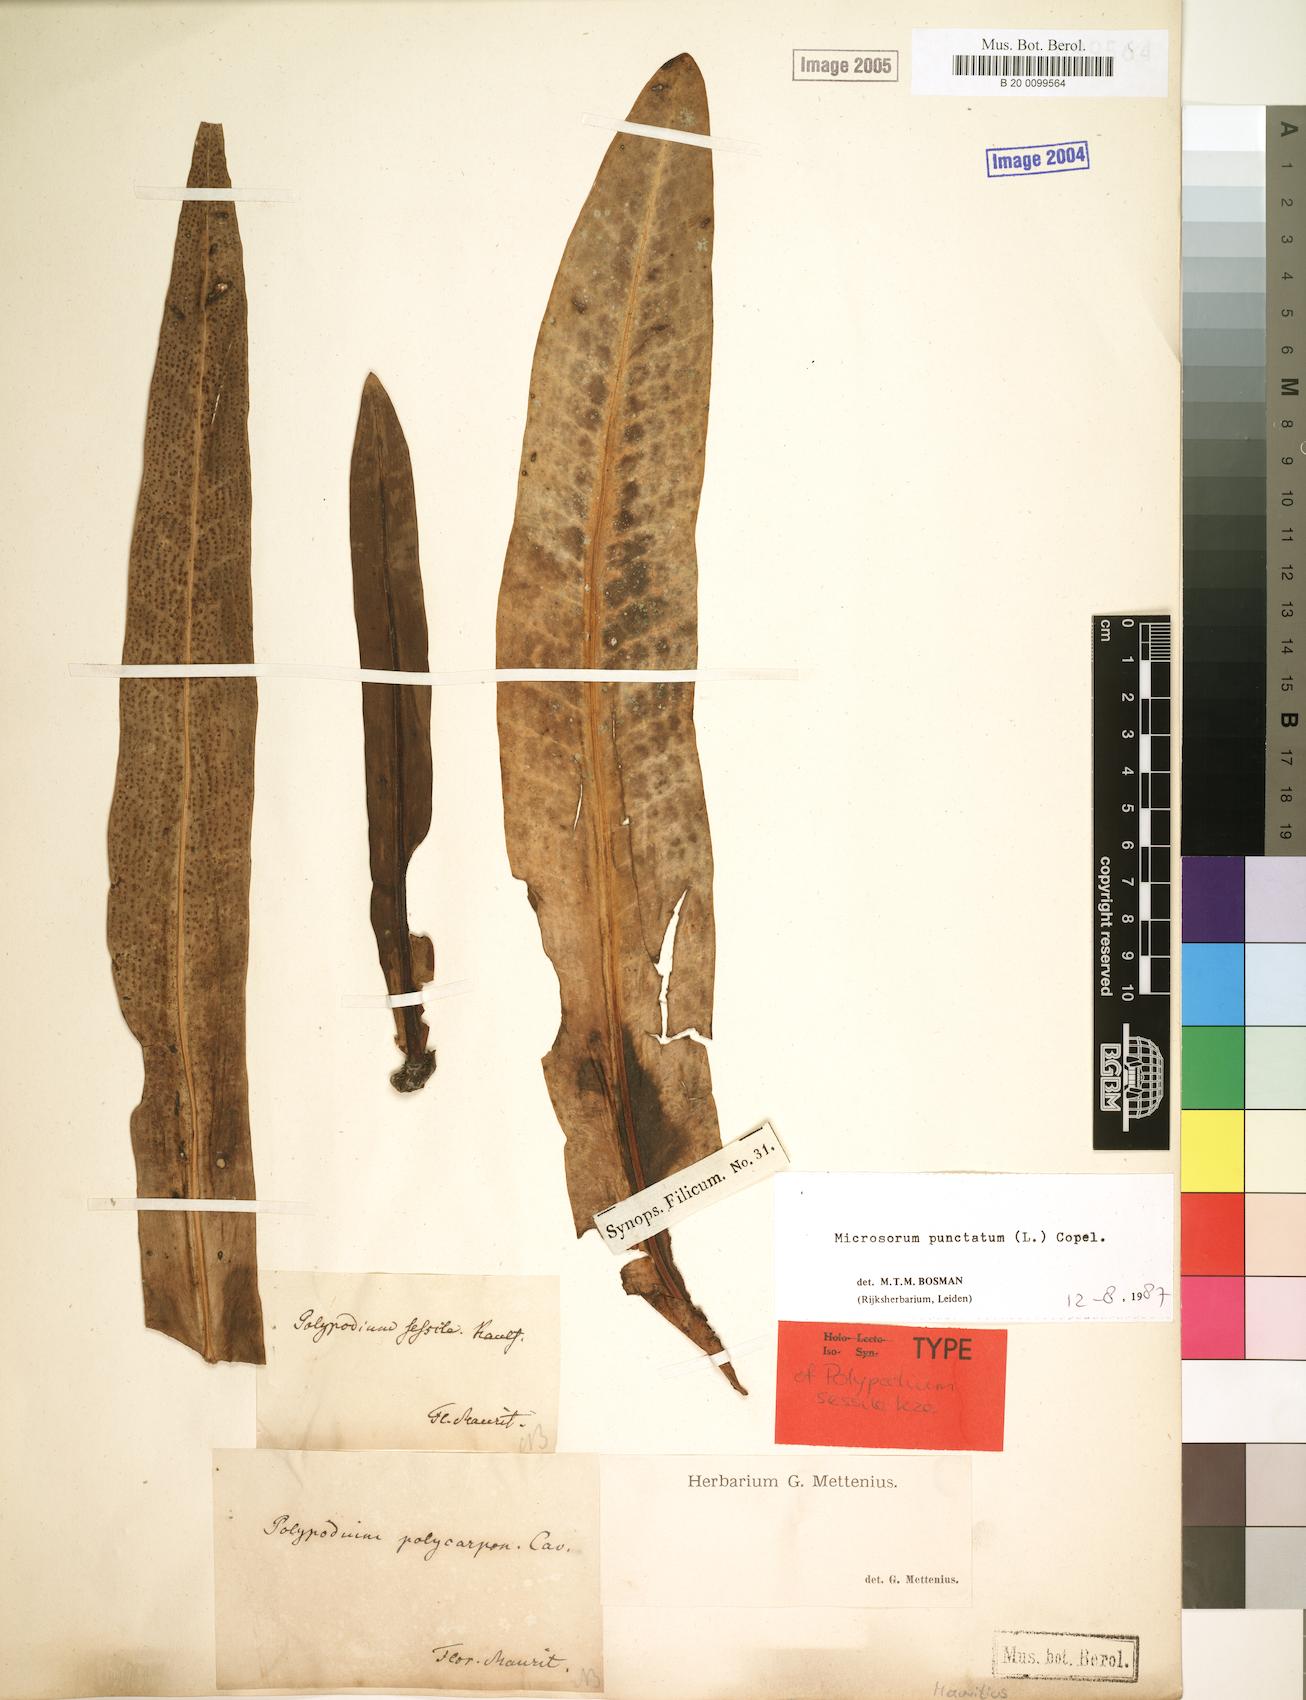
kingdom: Plantae
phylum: Tracheophyta
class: Polypodiopsida
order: Polypodiales
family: Polypodiaceae
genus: Microsorum
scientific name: Microsorum punctatum
